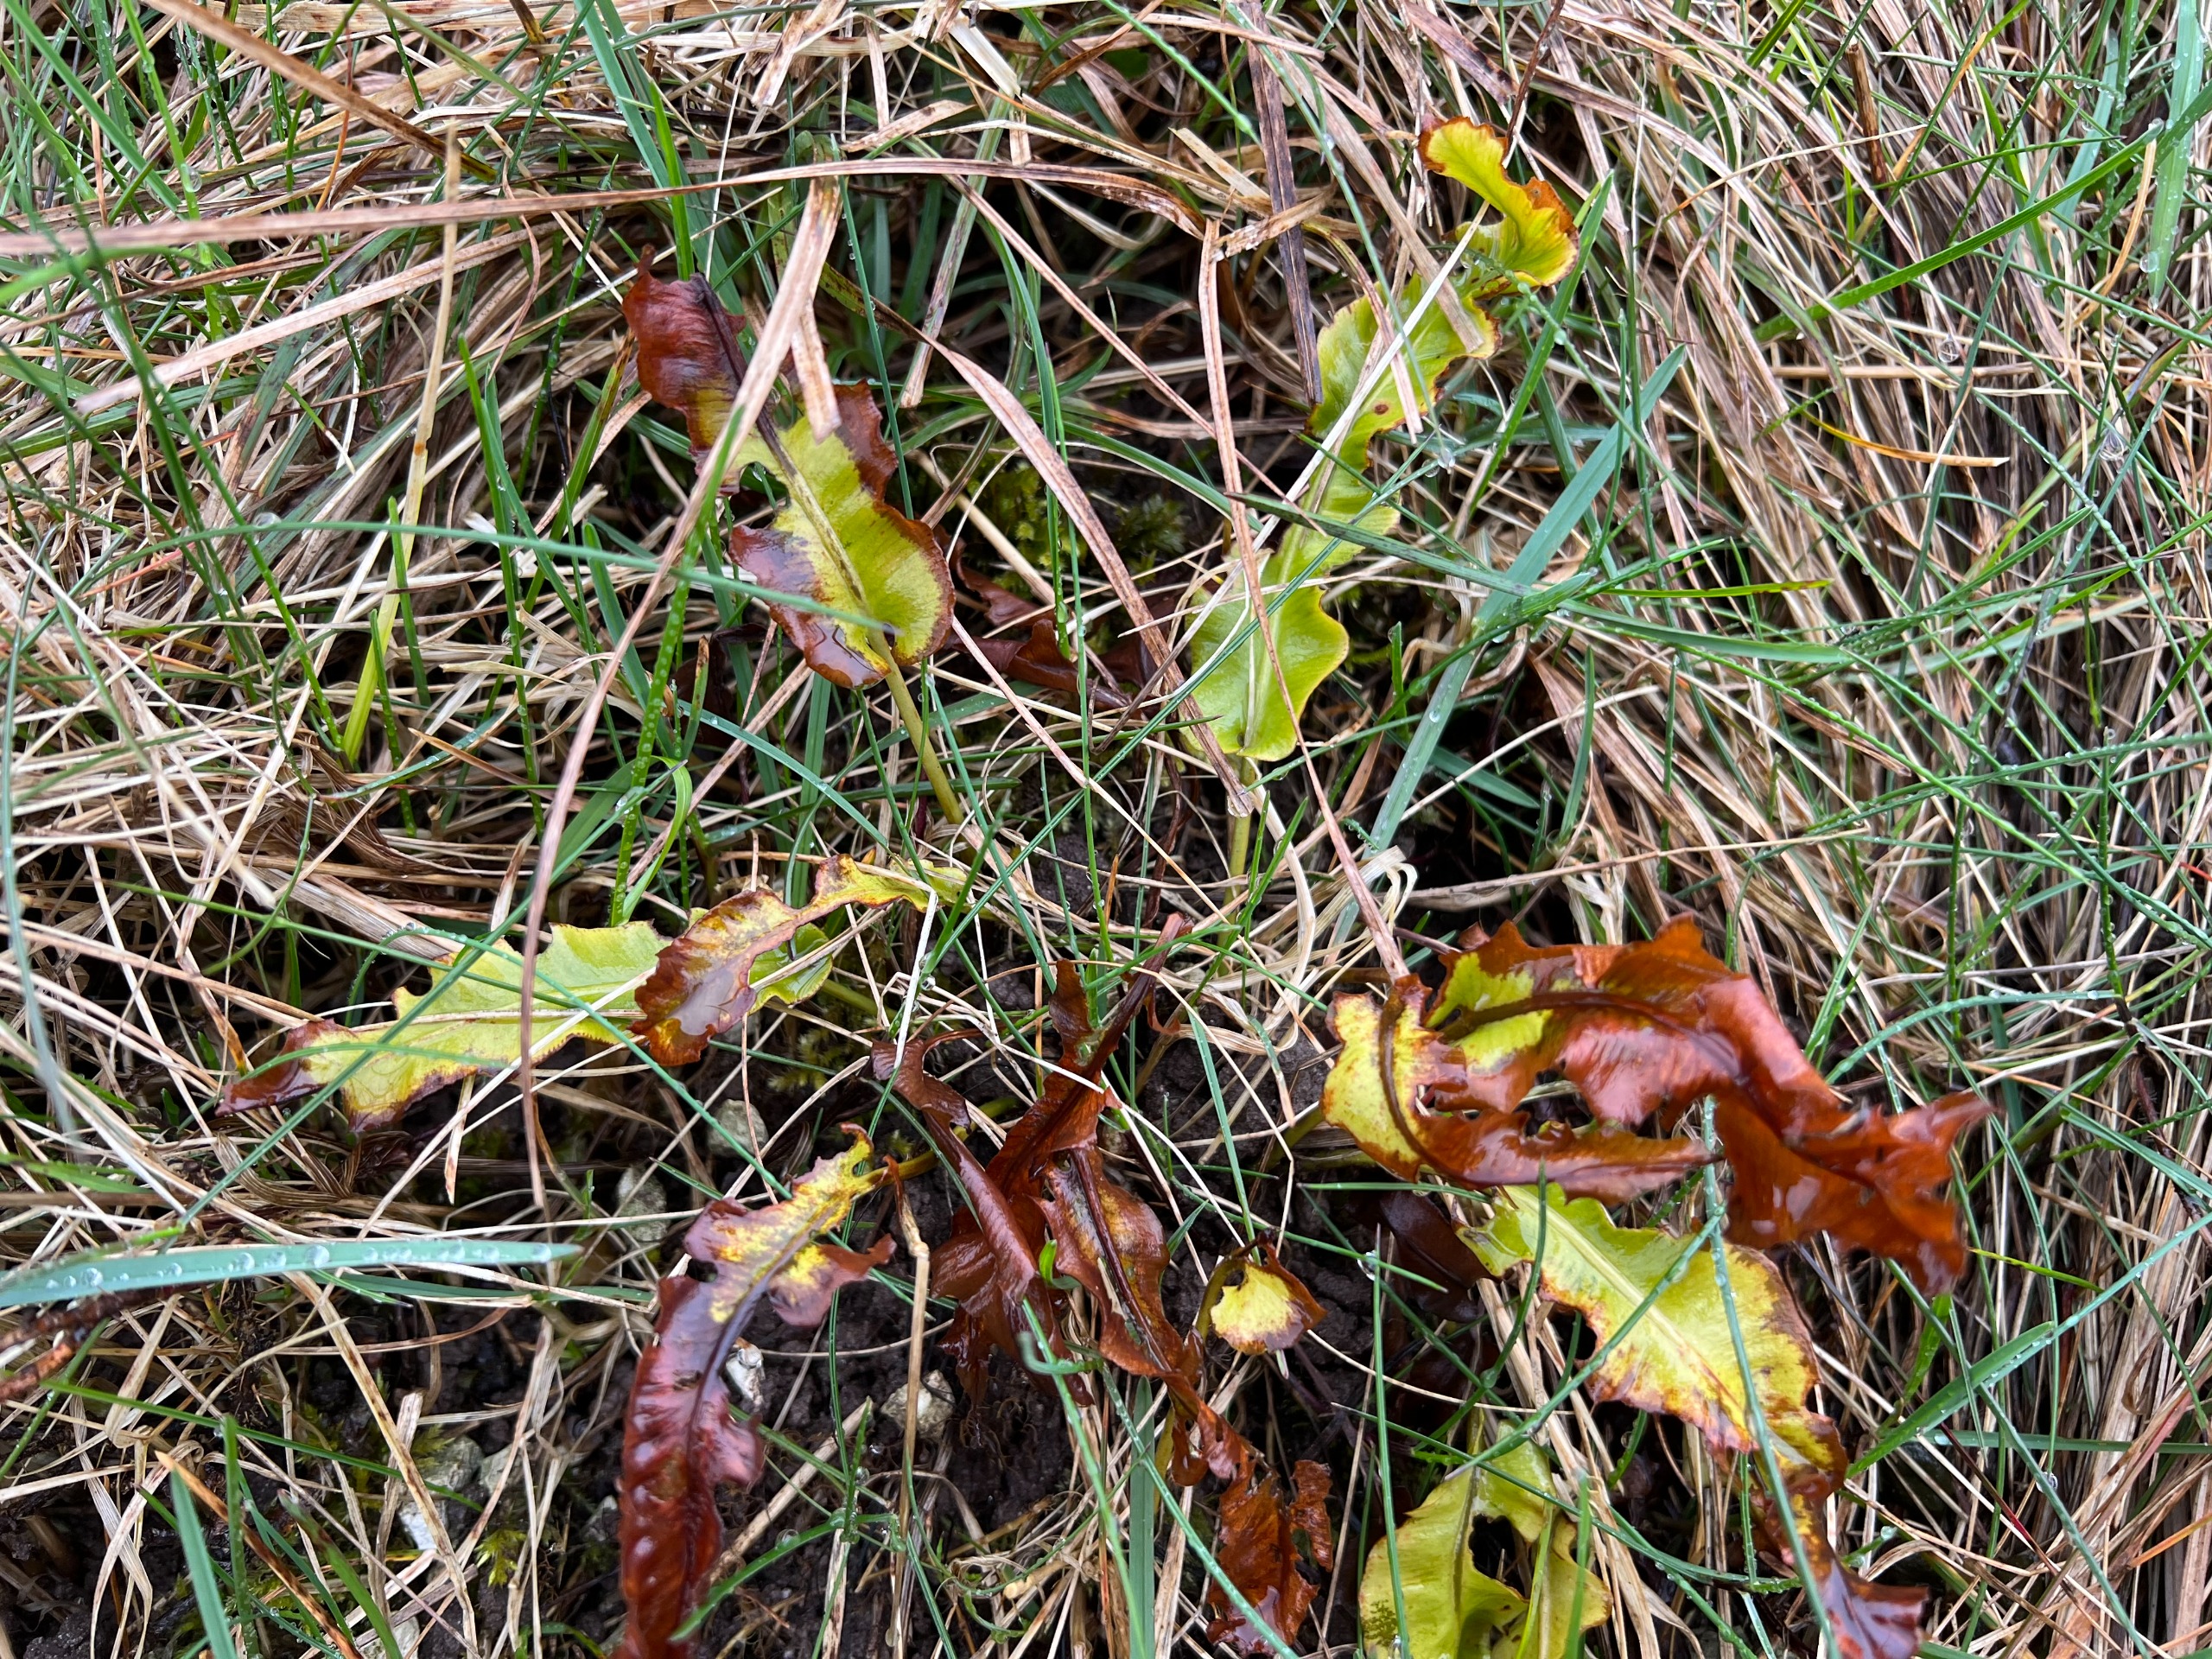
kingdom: Plantae
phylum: Tracheophyta
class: Polypodiopsida
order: Polypodiales
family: Aspleniaceae
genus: Asplenium
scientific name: Asplenium scolopendrium
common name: Hjortetunge
